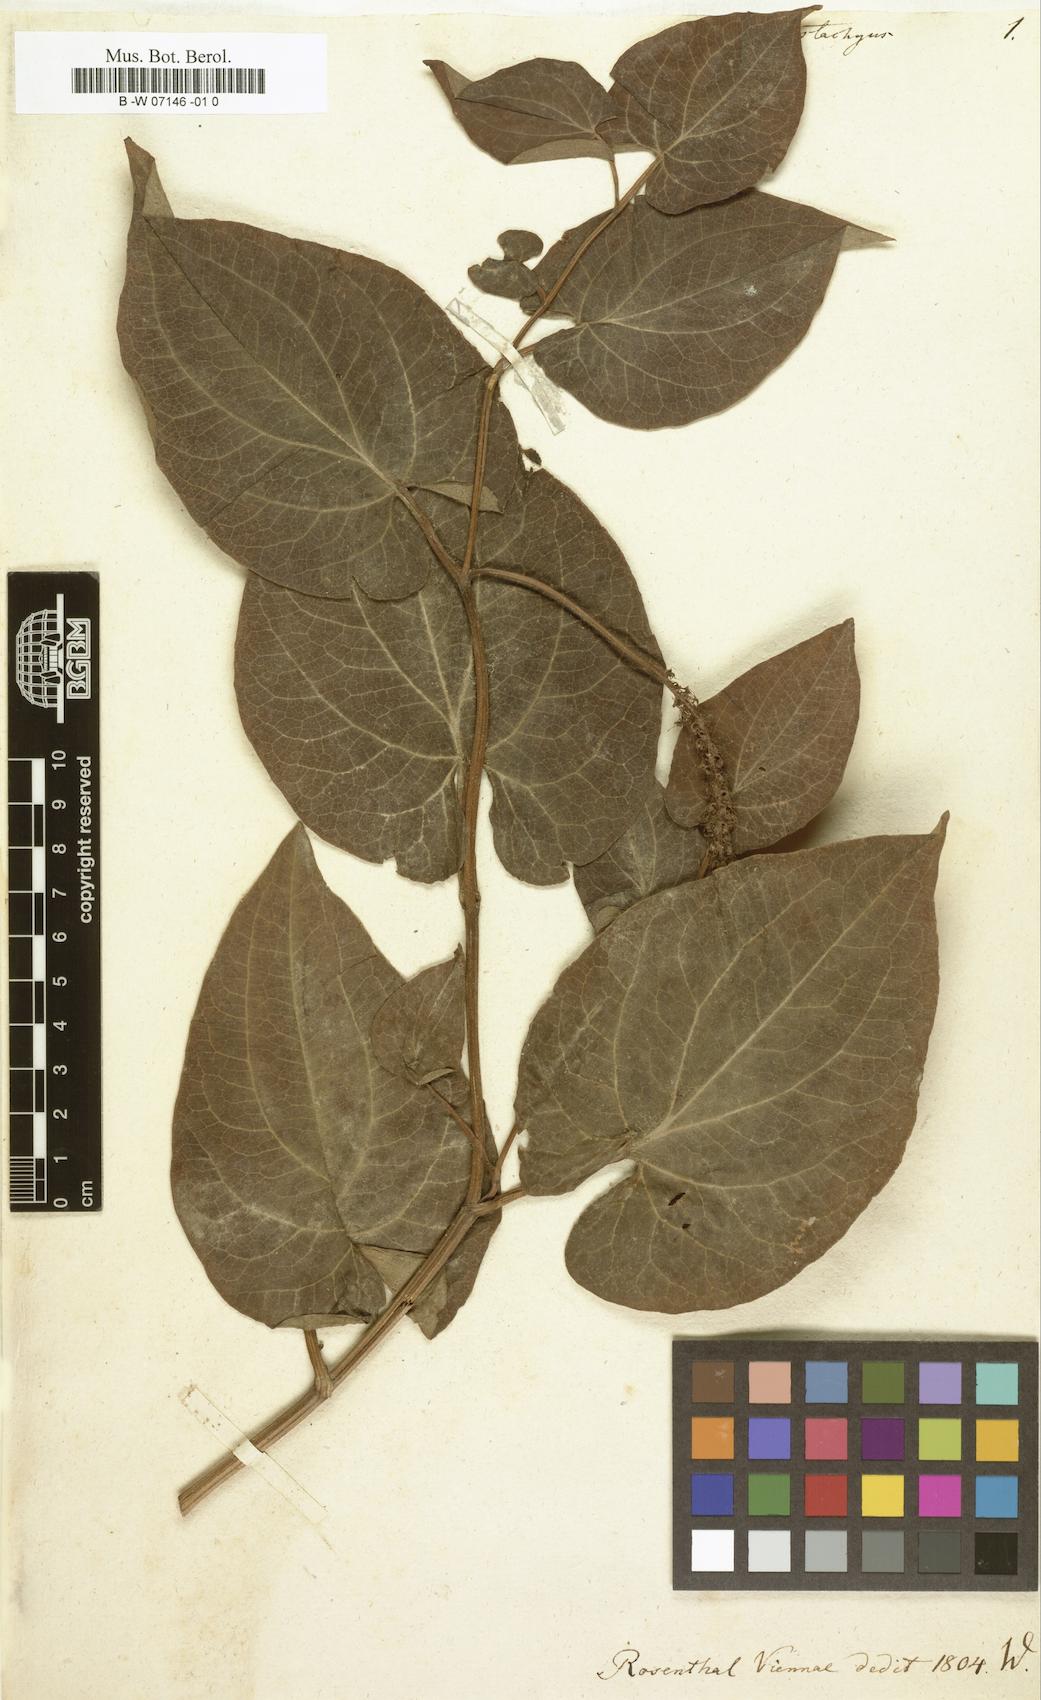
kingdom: Plantae
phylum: Tracheophyta
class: Magnoliopsida
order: Piperales
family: Saururaceae
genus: Saururus
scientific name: Saururus
